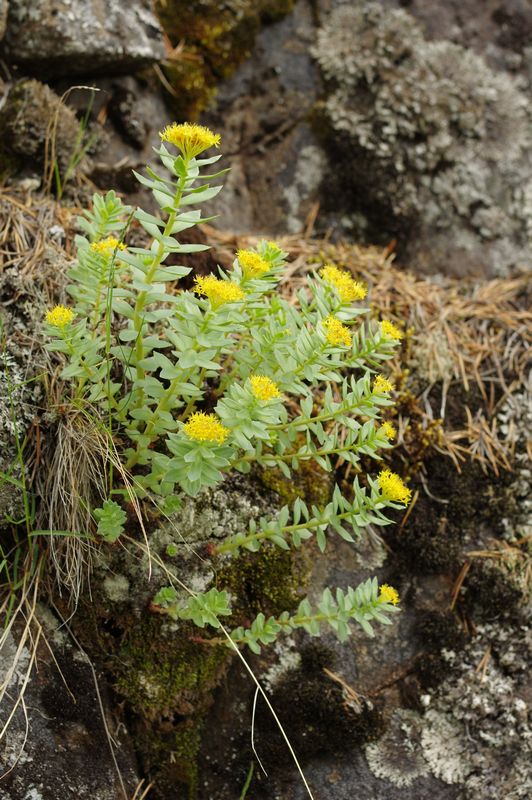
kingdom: Plantae
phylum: Tracheophyta
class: Magnoliopsida
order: Saxifragales
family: Crassulaceae
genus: Rhodiola
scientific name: Rhodiola rosea
